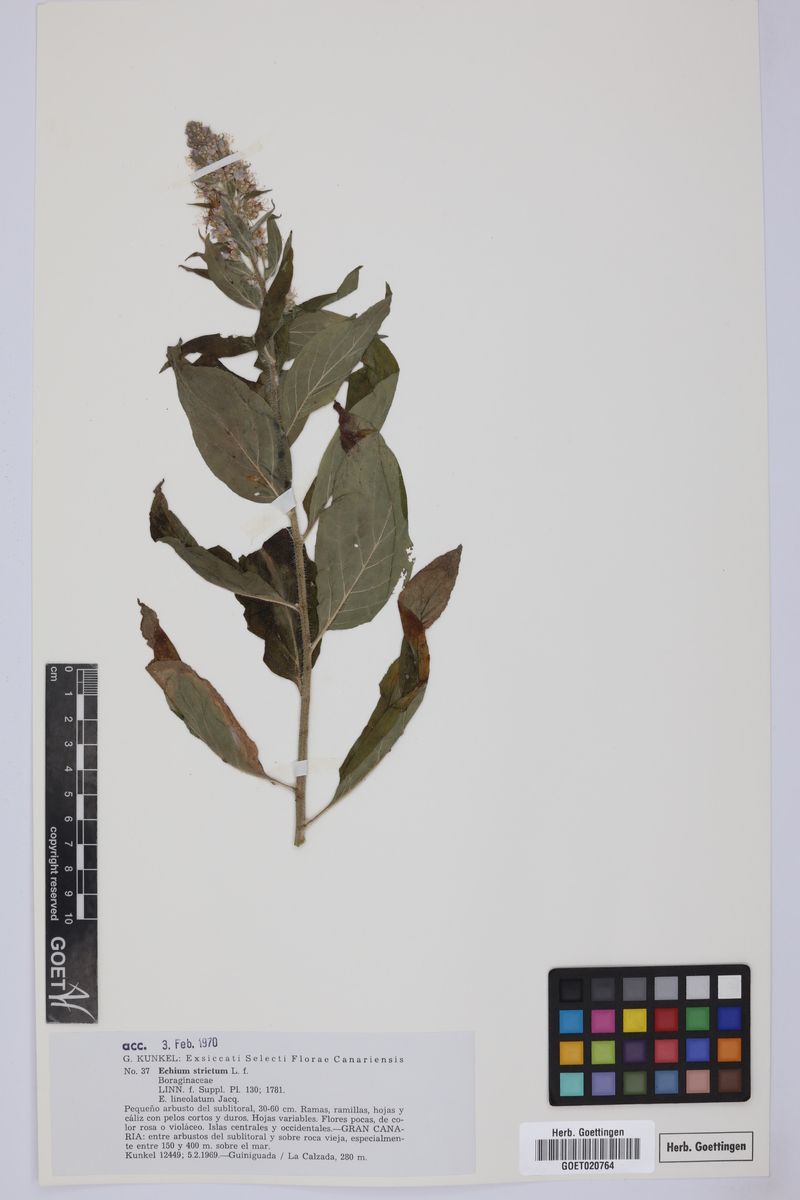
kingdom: Plantae
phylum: Tracheophyta
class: Magnoliopsida
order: Boraginales
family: Boraginaceae
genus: Echium
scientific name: Echium strictum
